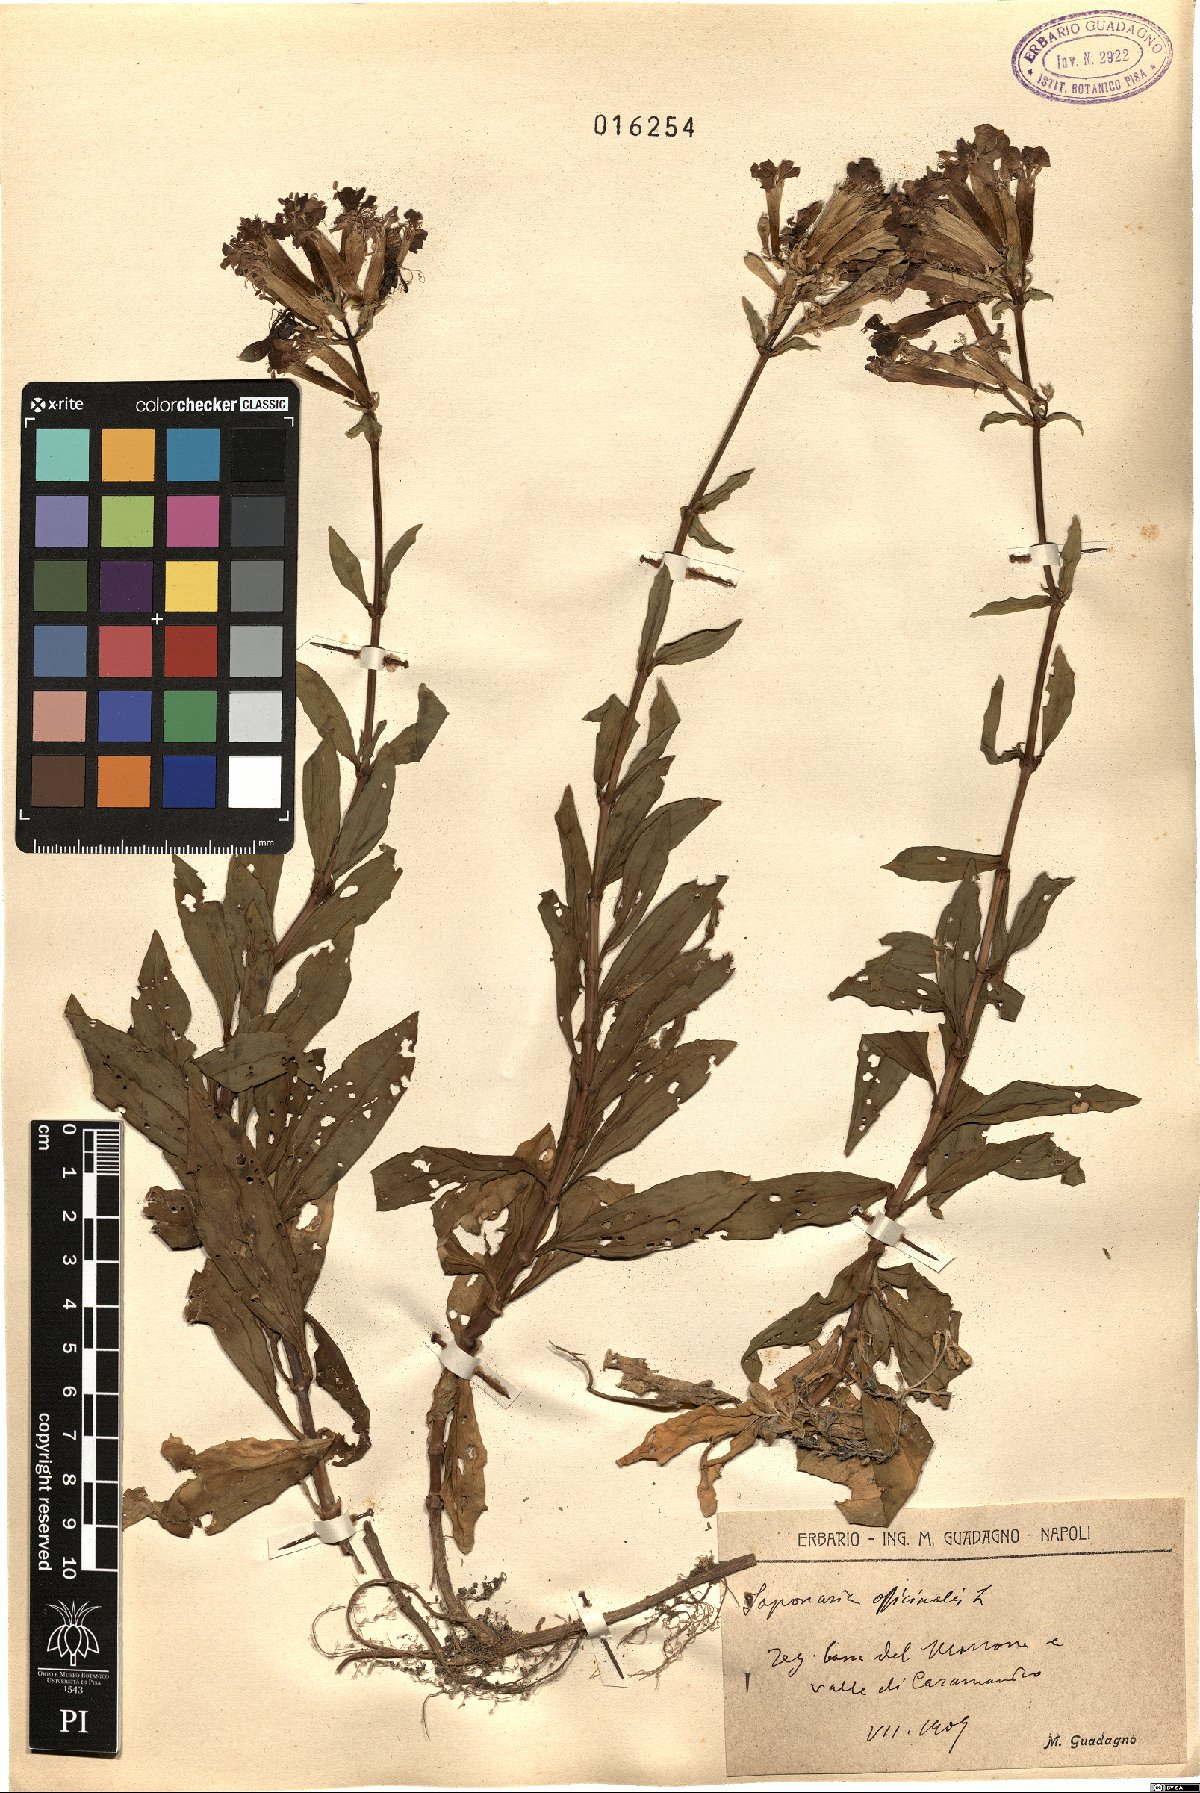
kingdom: Plantae
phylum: Tracheophyta
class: Magnoliopsida
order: Caryophyllales
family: Caryophyllaceae
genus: Saponaria
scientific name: Saponaria officinalis
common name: Soapwort
